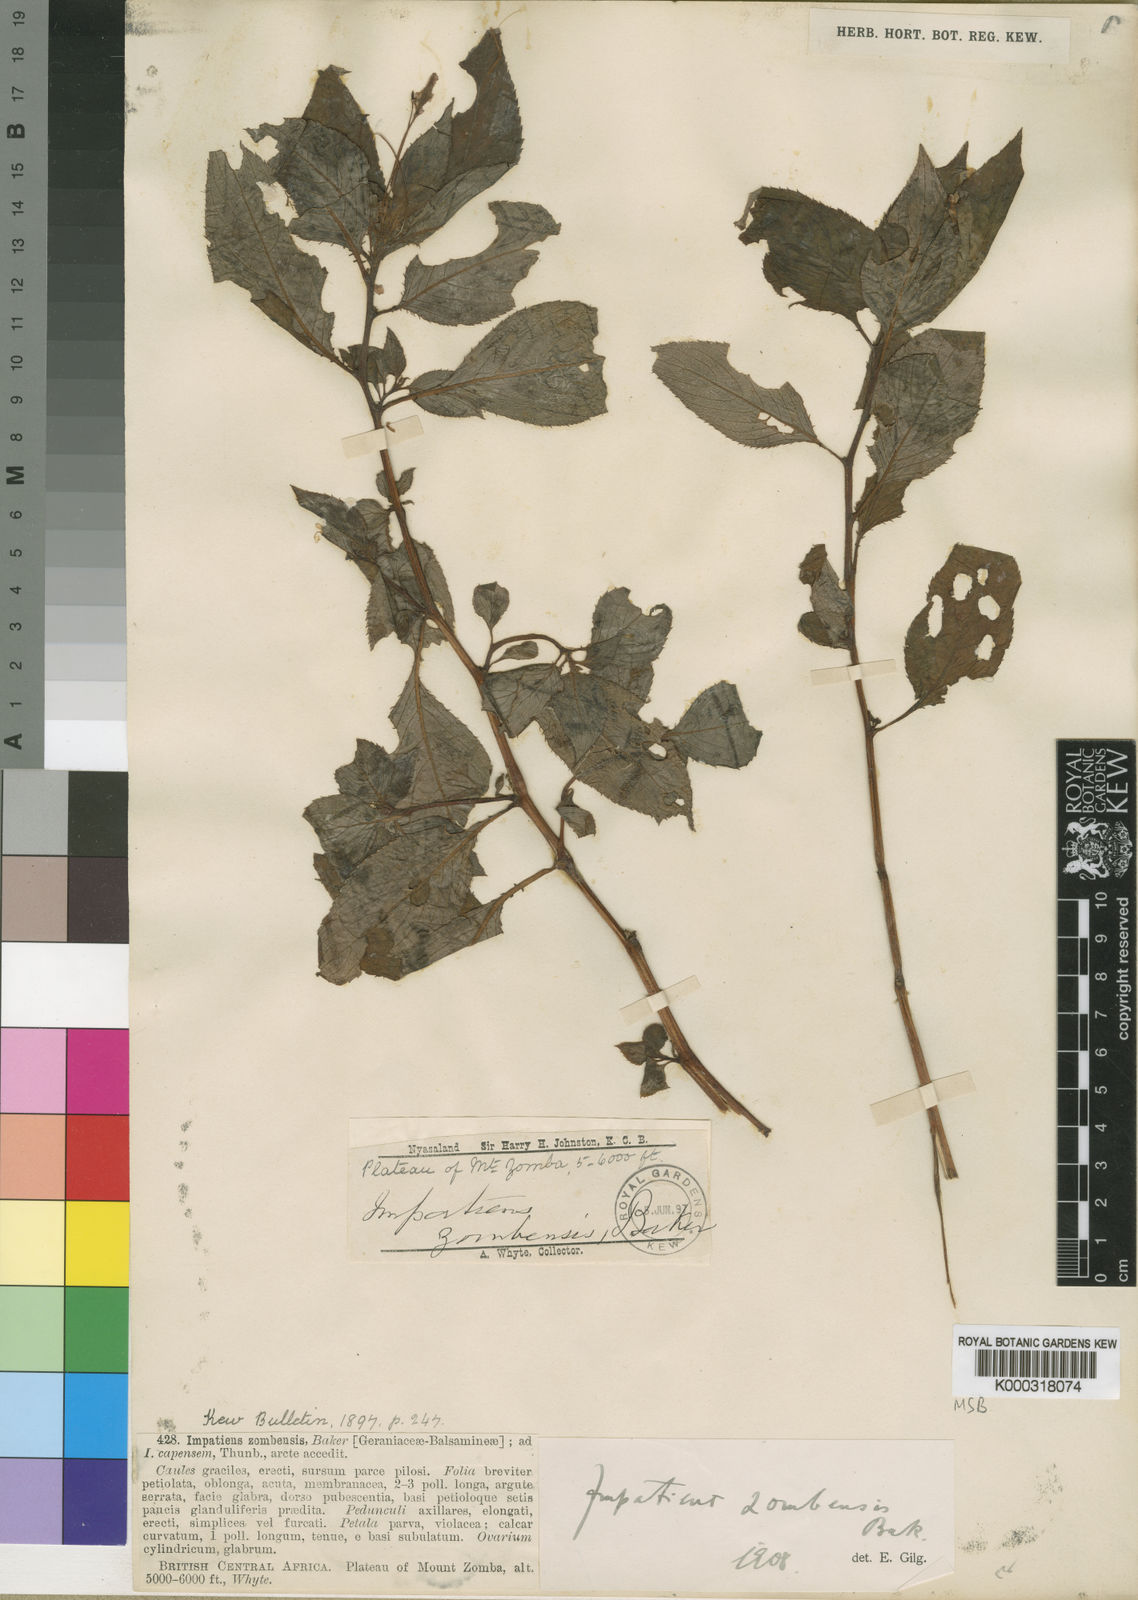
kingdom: Plantae
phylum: Tracheophyta
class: Magnoliopsida
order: Ericales
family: Balsaminaceae
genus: Impatiens
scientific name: Impatiens zombensis
